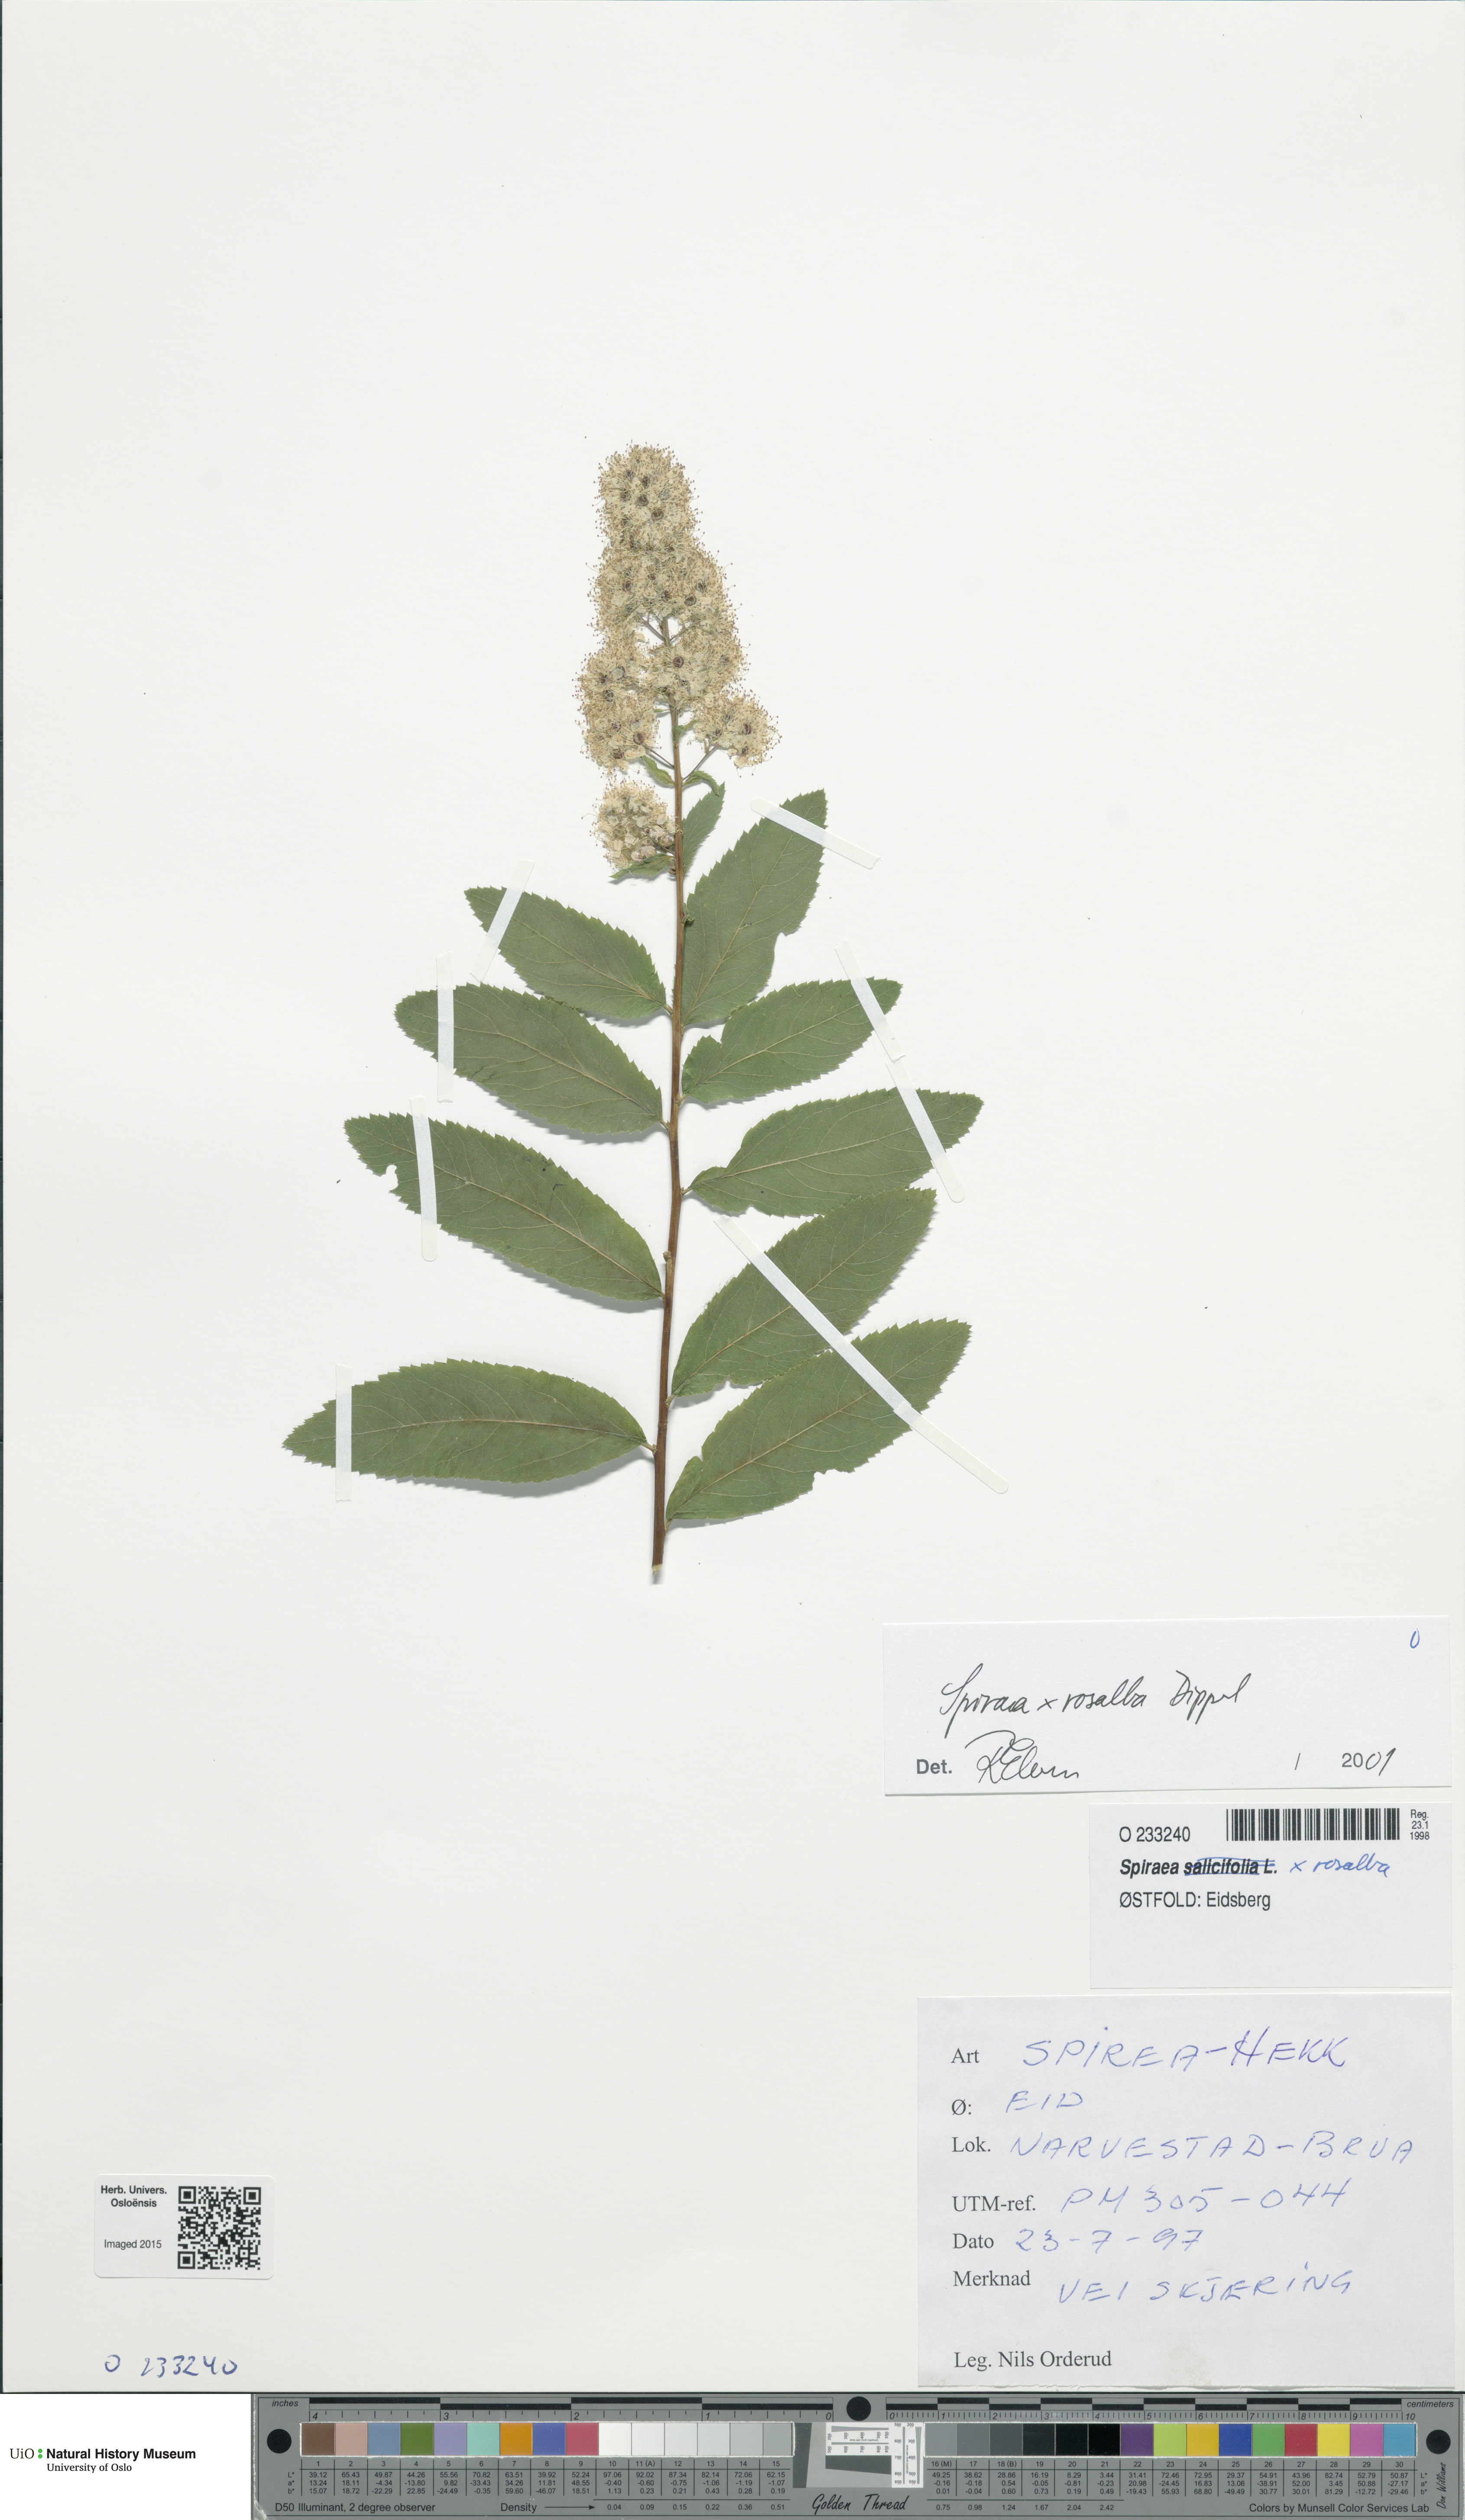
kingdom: Plantae
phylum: Tracheophyta
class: Magnoliopsida
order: Rosales
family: Rosaceae
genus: Spiraea
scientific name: Spiraea rosalba
